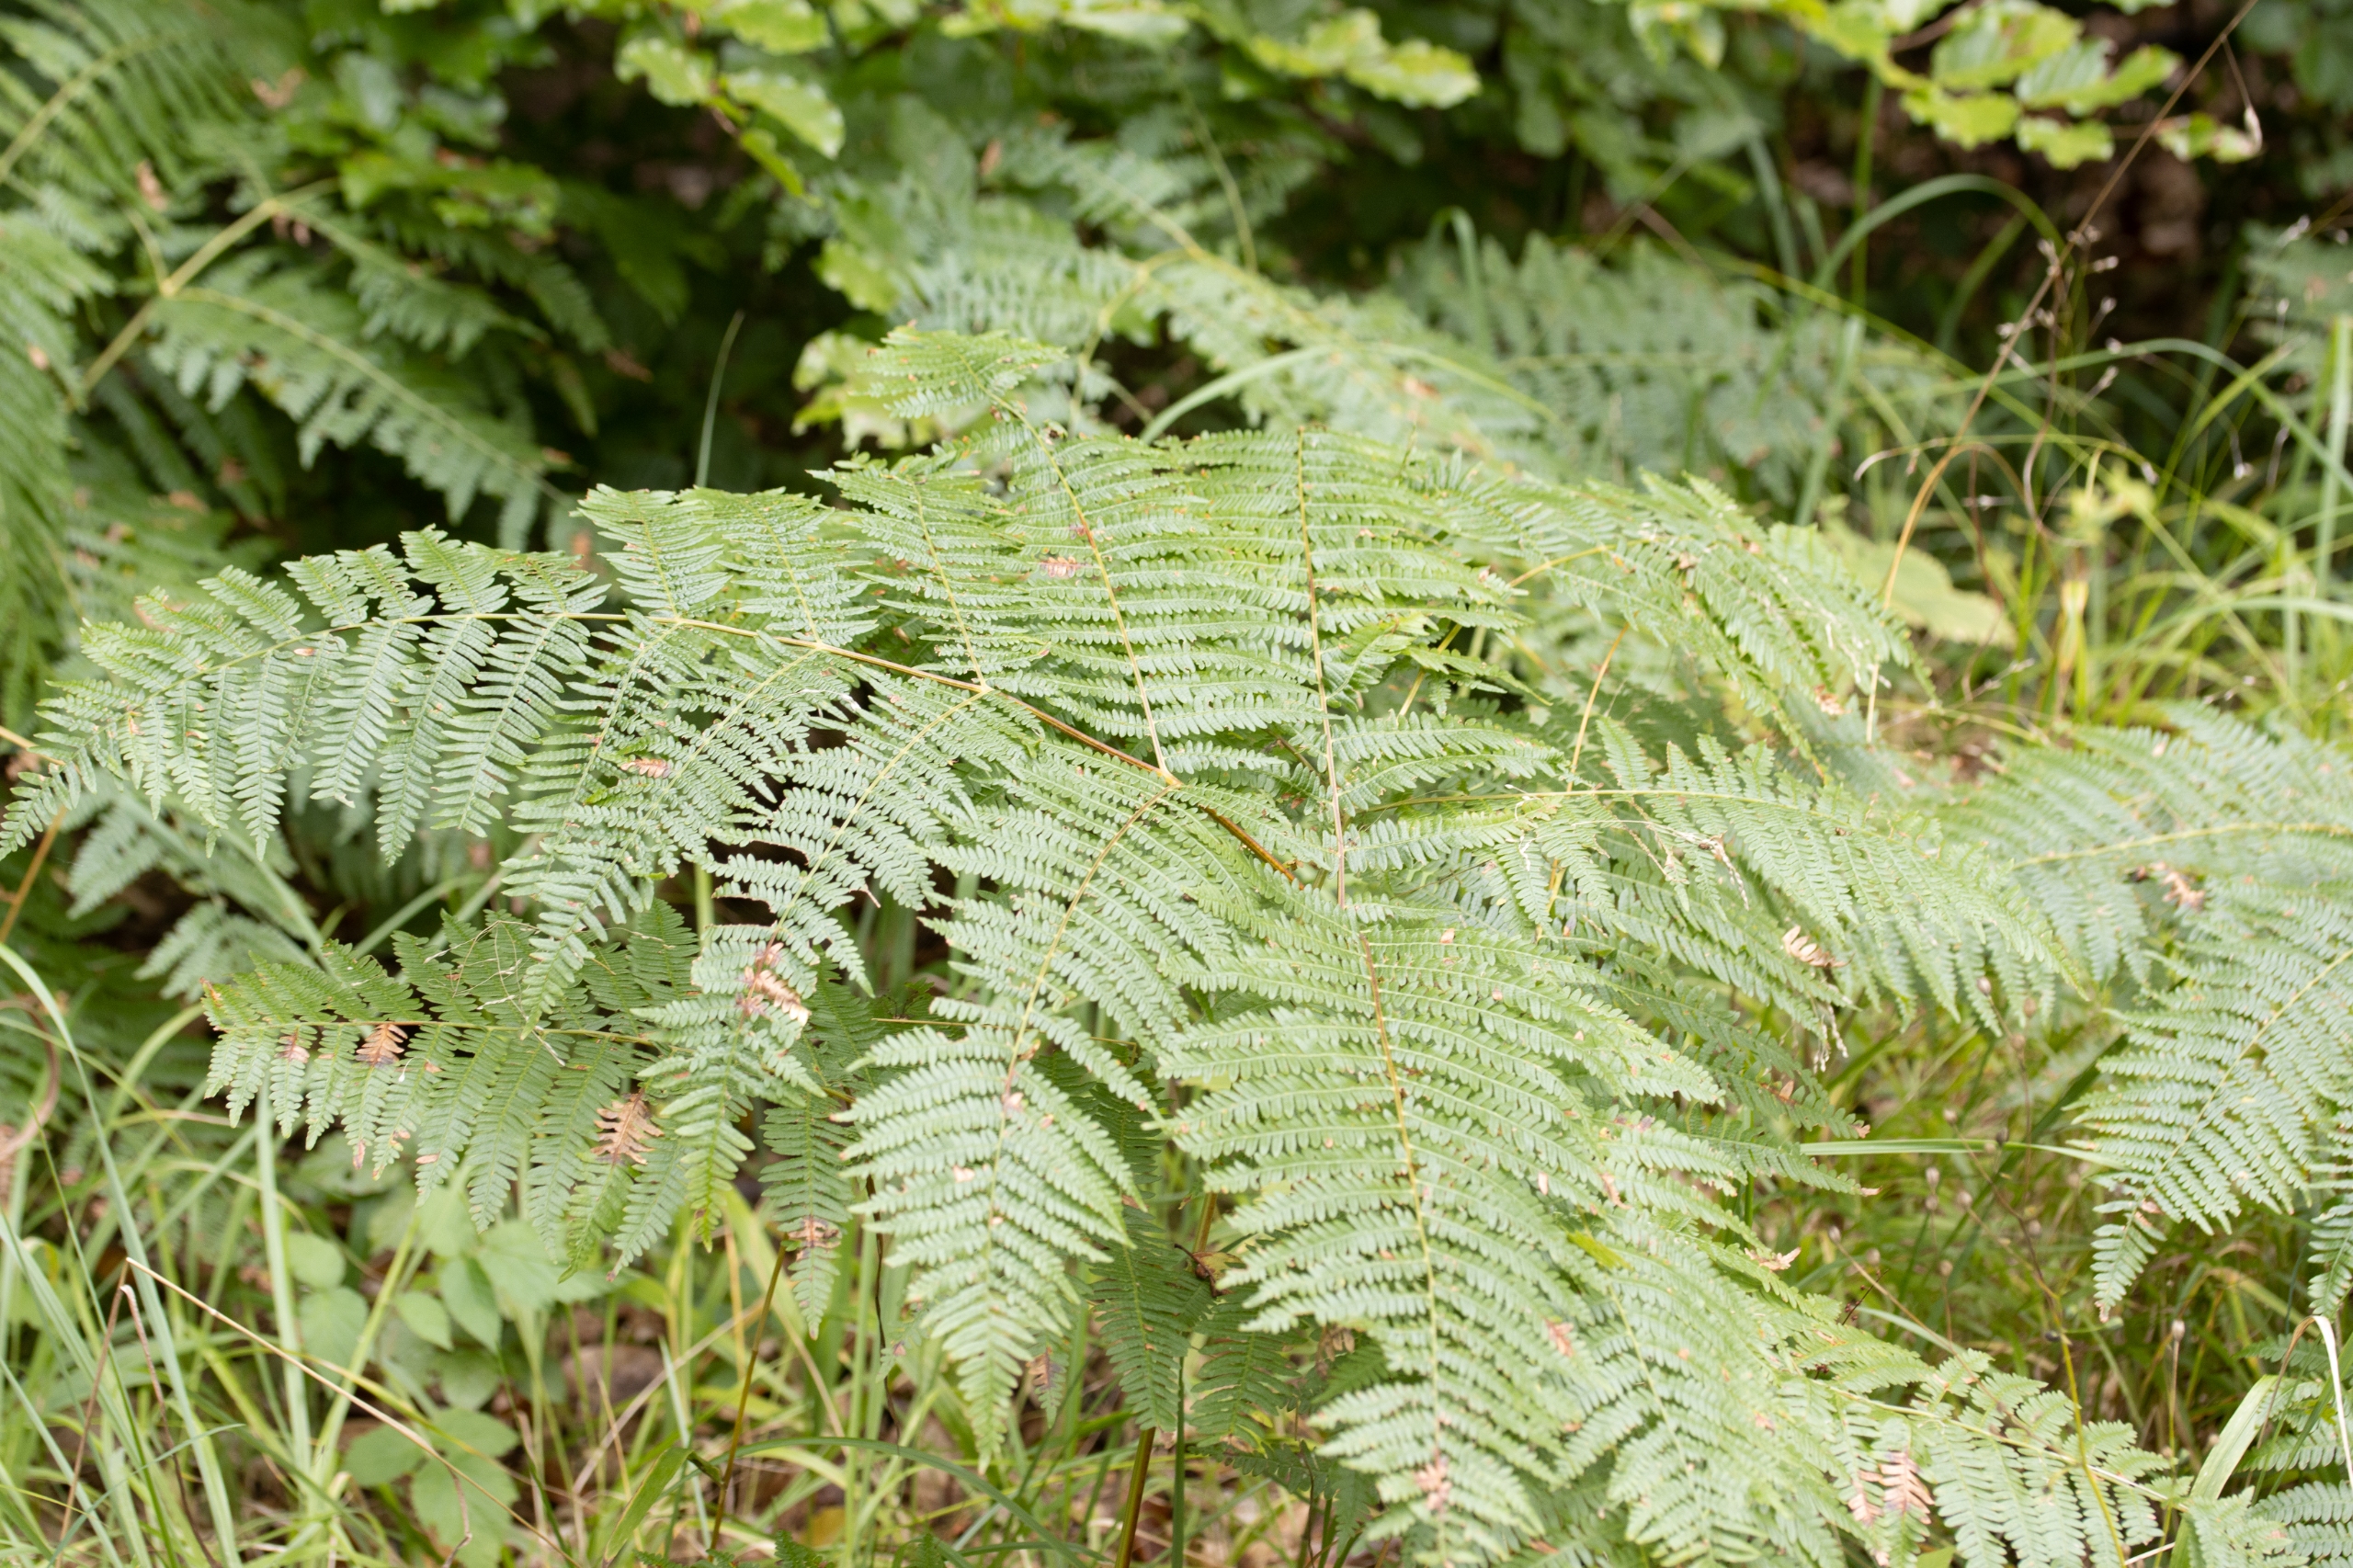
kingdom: Plantae
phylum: Tracheophyta
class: Polypodiopsida
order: Polypodiales
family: Dennstaedtiaceae
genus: Pteridium
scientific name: Pteridium aquilinum
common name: Ørnebregne
